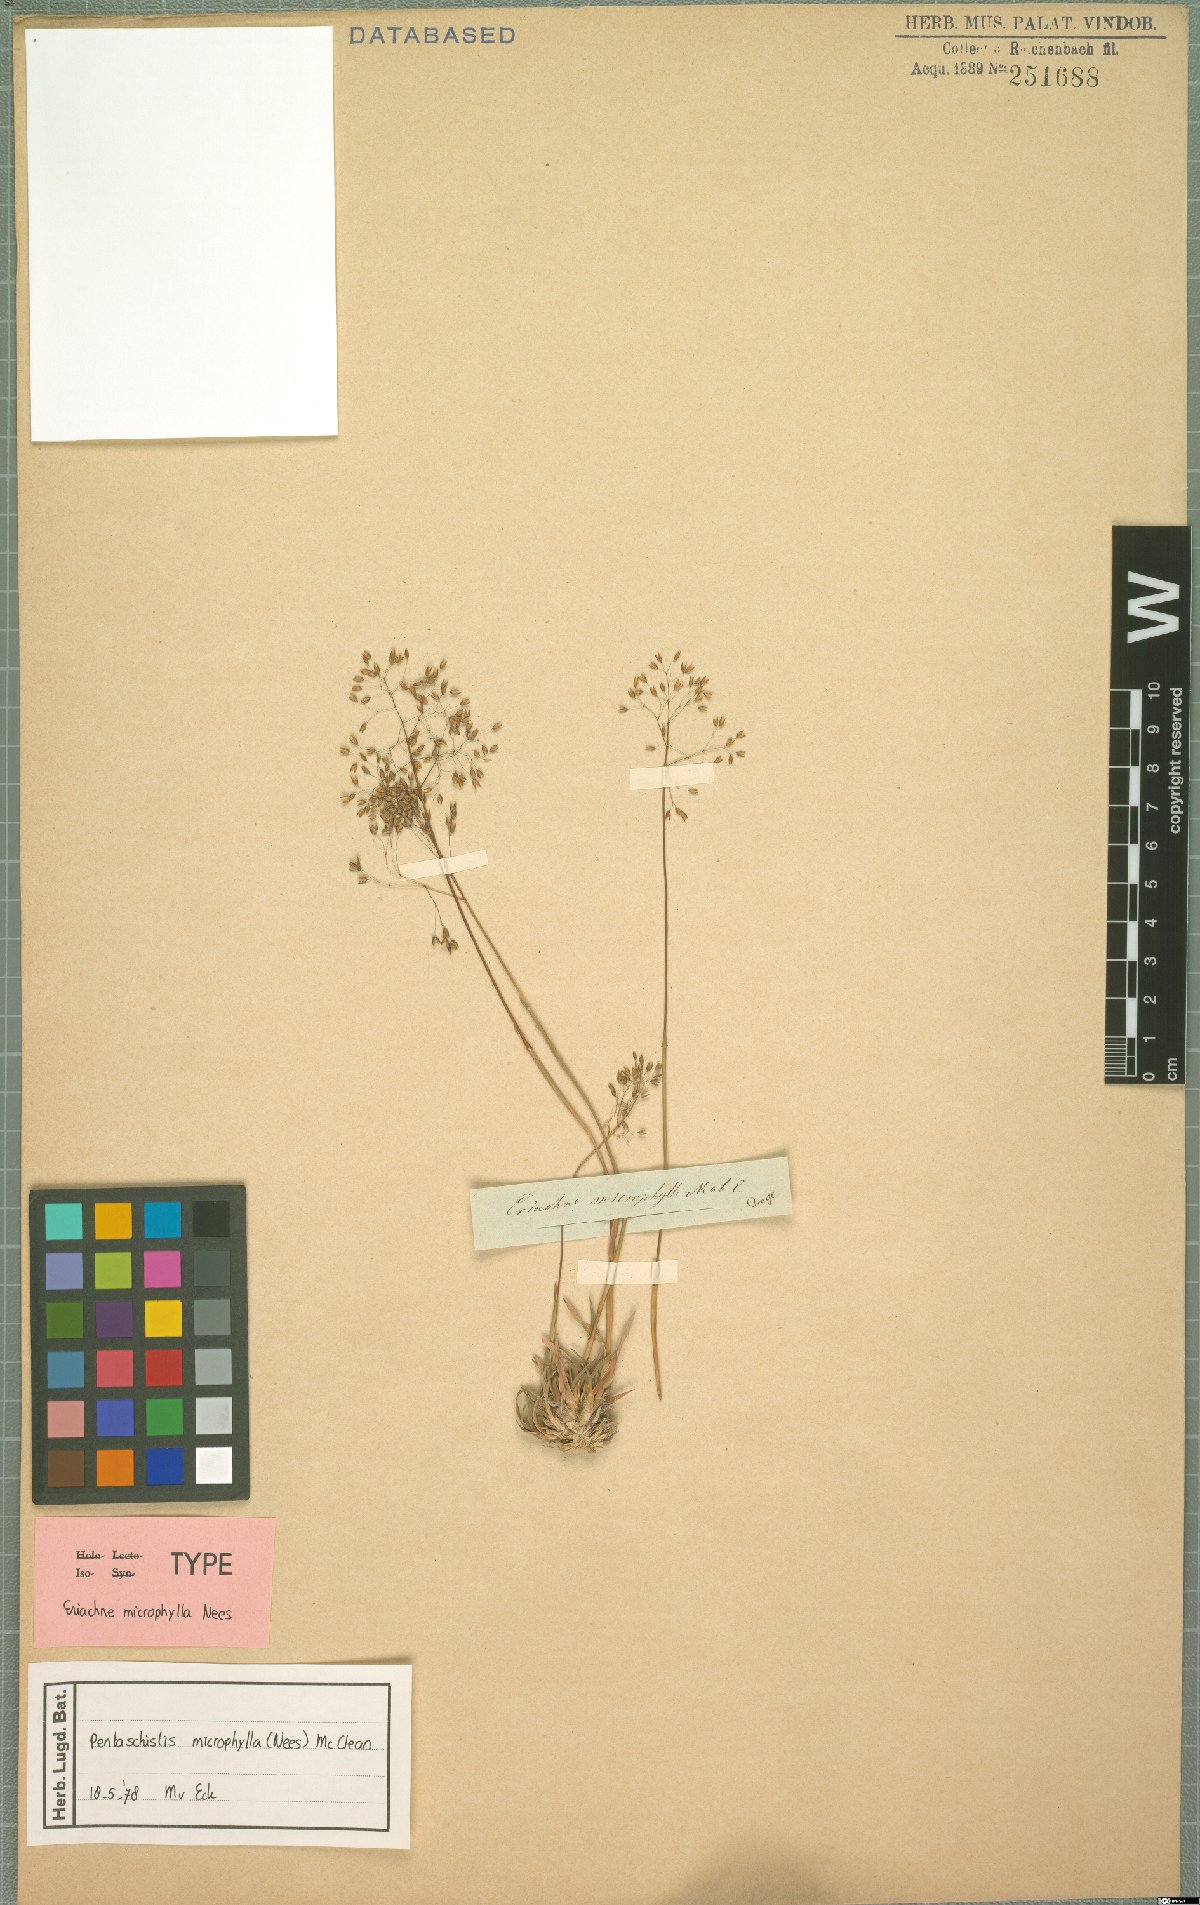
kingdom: Plantae
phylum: Tracheophyta
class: Liliopsida
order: Poales
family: Poaceae
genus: Pentameris
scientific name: Pentameris microphylla
